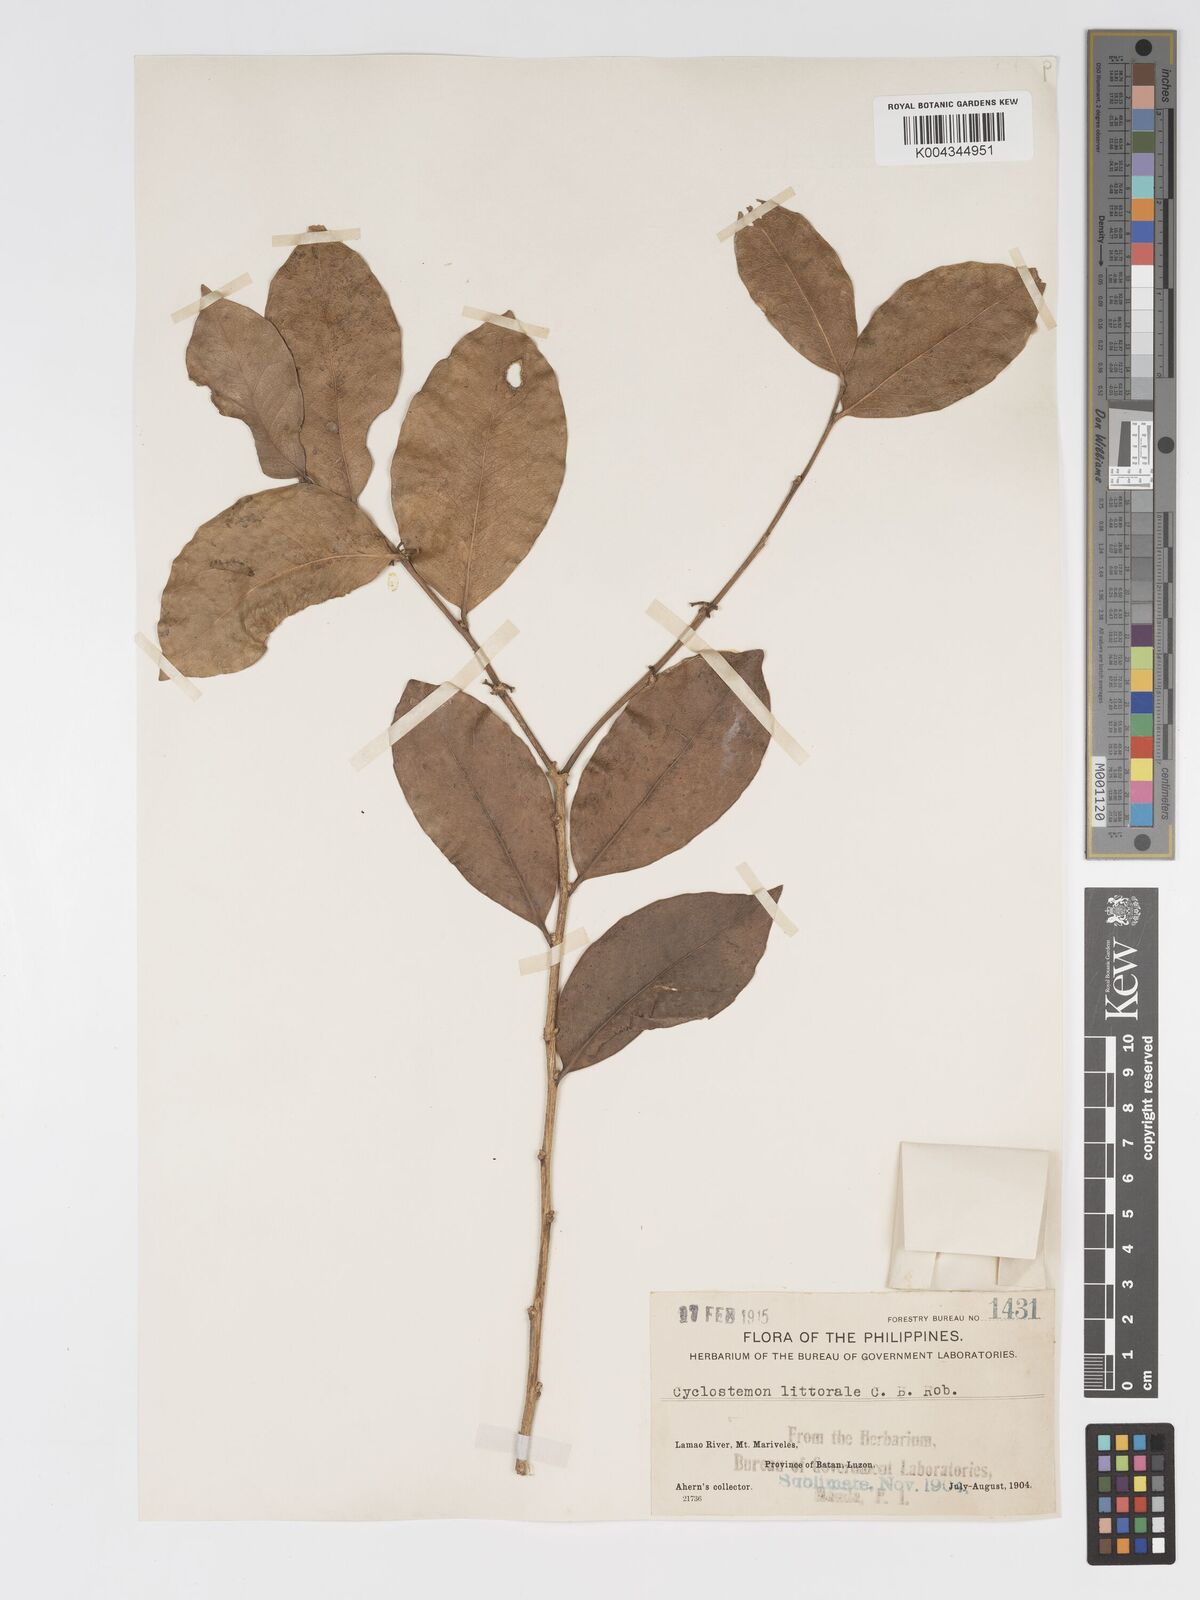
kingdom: Plantae
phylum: Tracheophyta
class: Magnoliopsida
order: Malpighiales
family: Putranjivaceae
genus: Drypetes
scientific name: Drypetes littoralis
